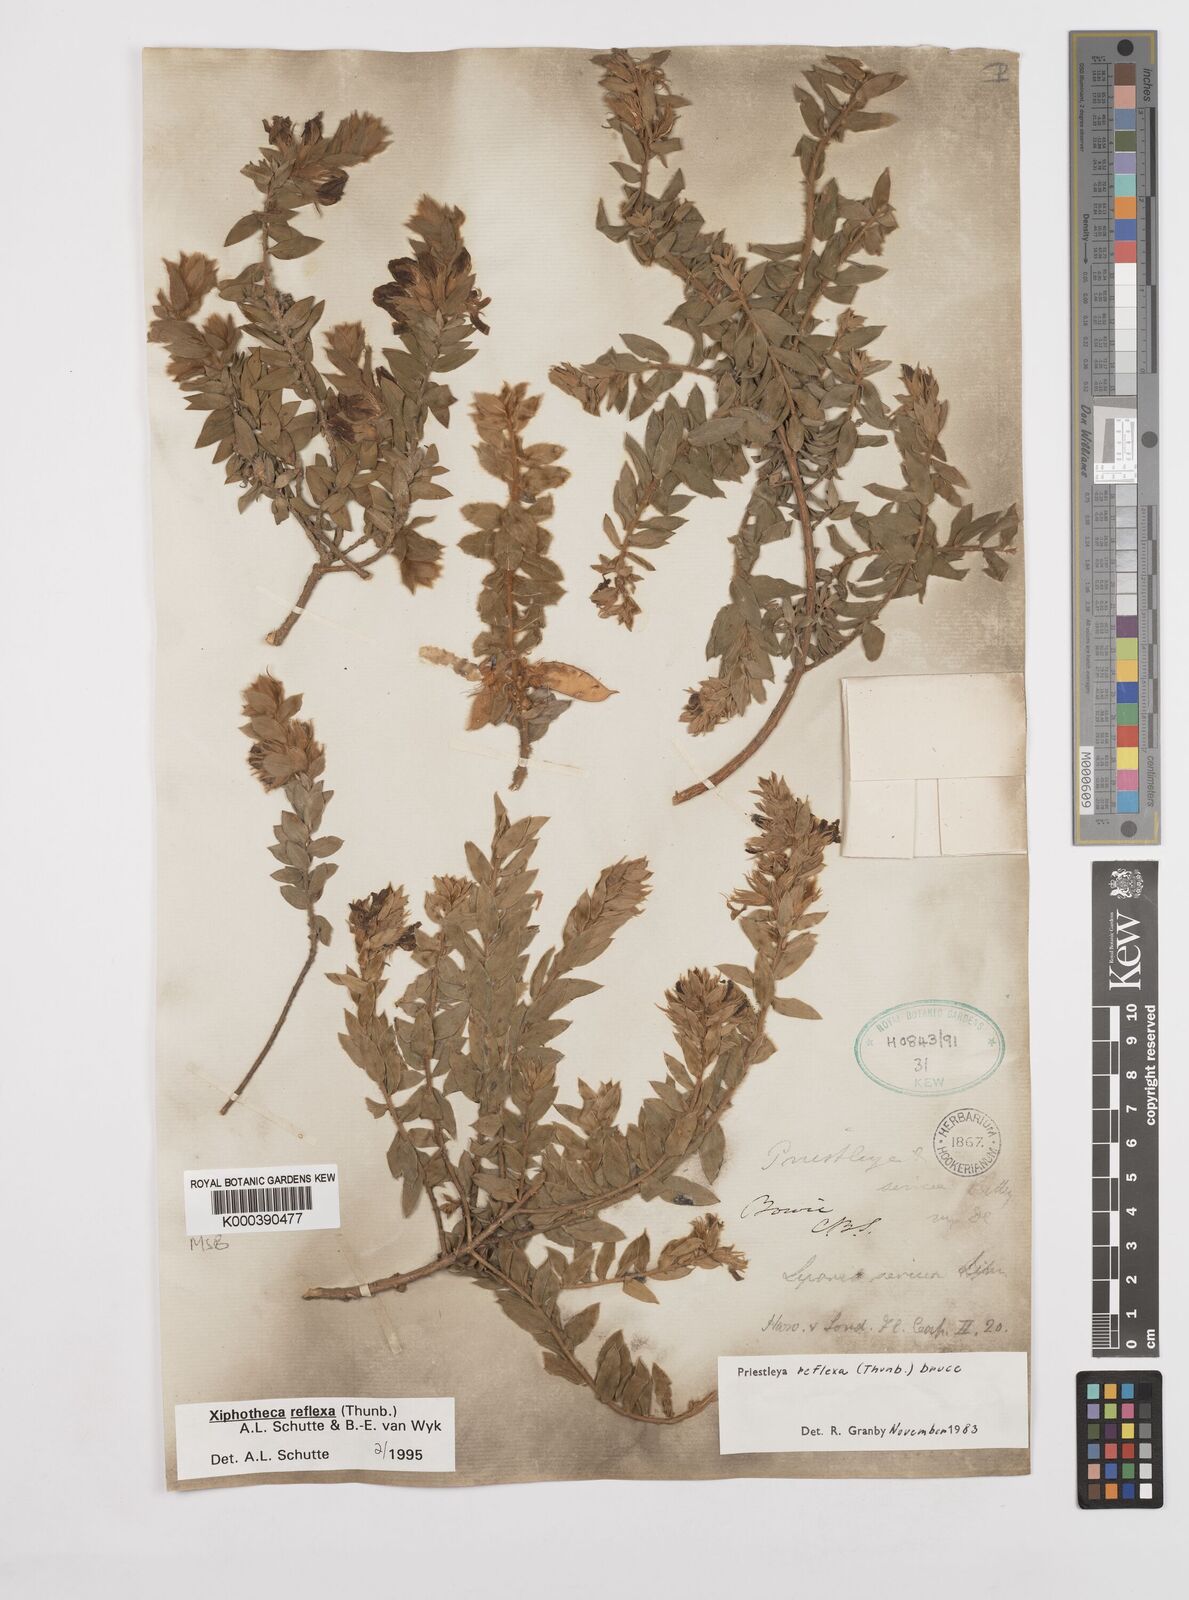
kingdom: Plantae
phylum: Tracheophyta
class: Magnoliopsida
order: Fabales
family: Fabaceae
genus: Xiphotheca
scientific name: Xiphotheca reflexa
